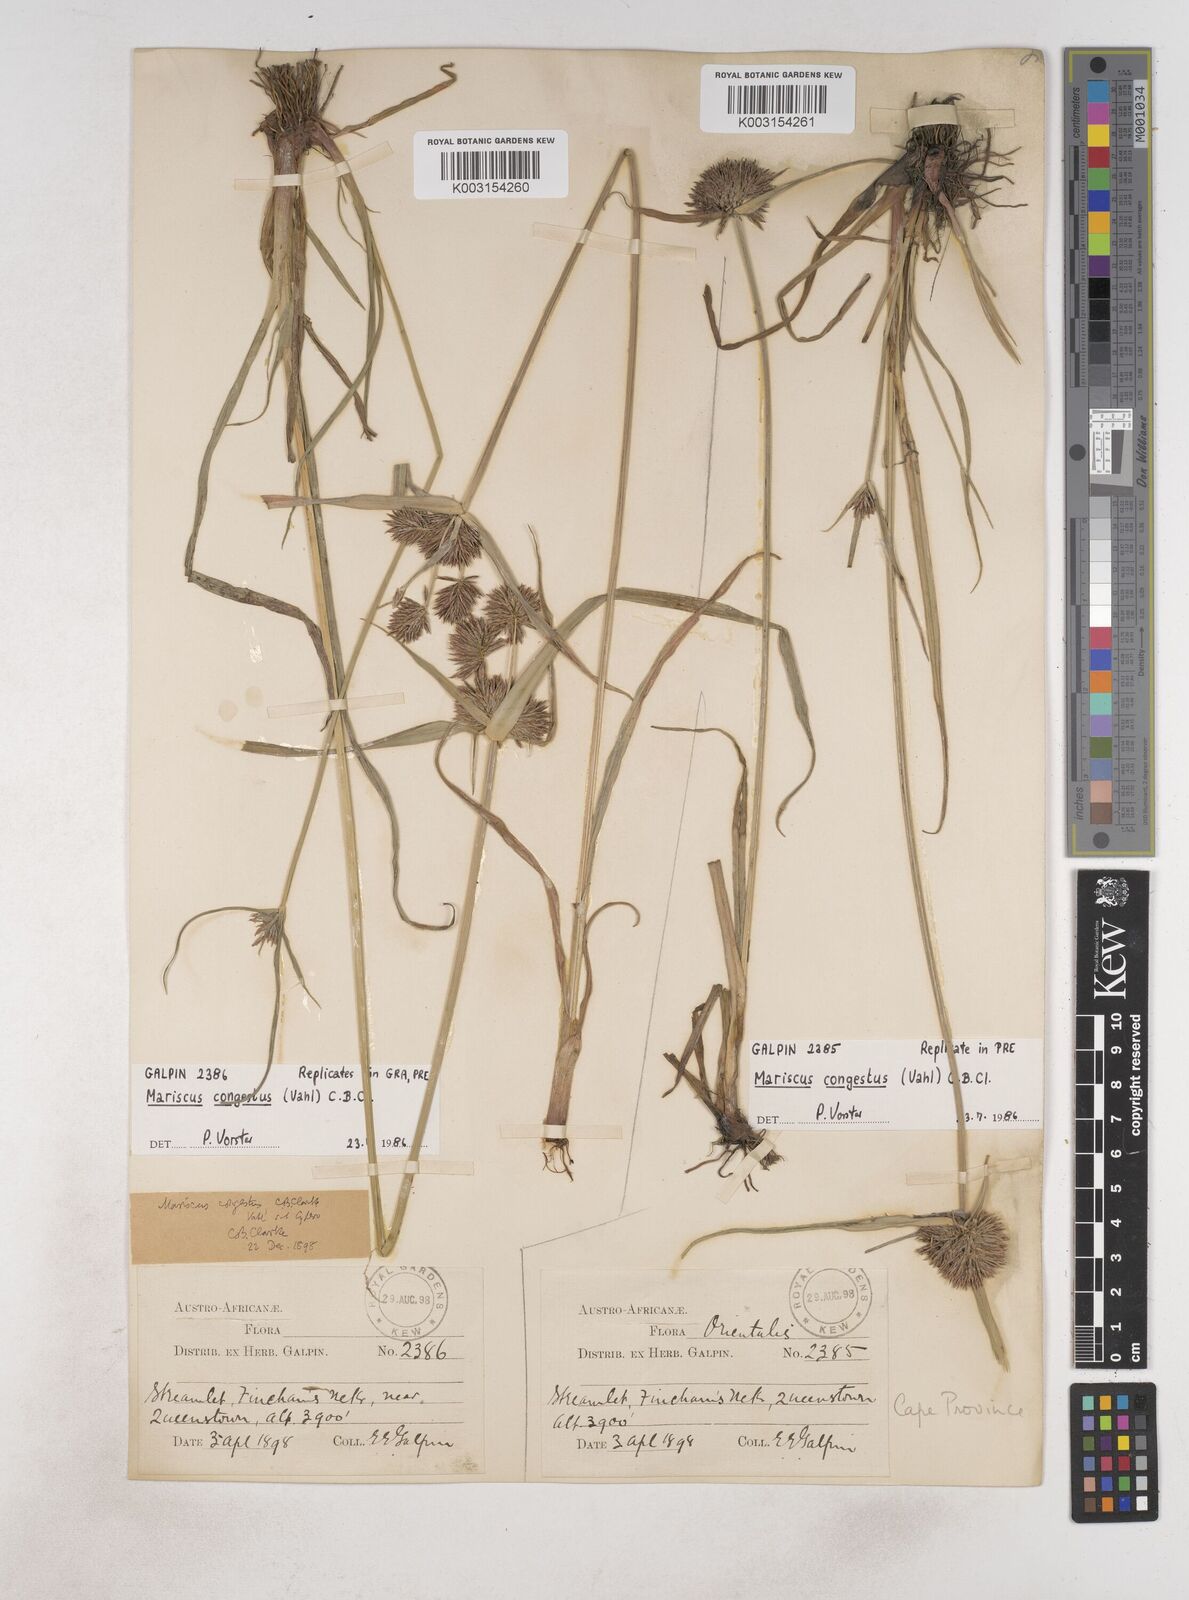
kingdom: Plantae
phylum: Tracheophyta
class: Liliopsida
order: Poales
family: Cyperaceae
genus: Cyperus
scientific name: Cyperus congestus
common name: Dense flat sedge
